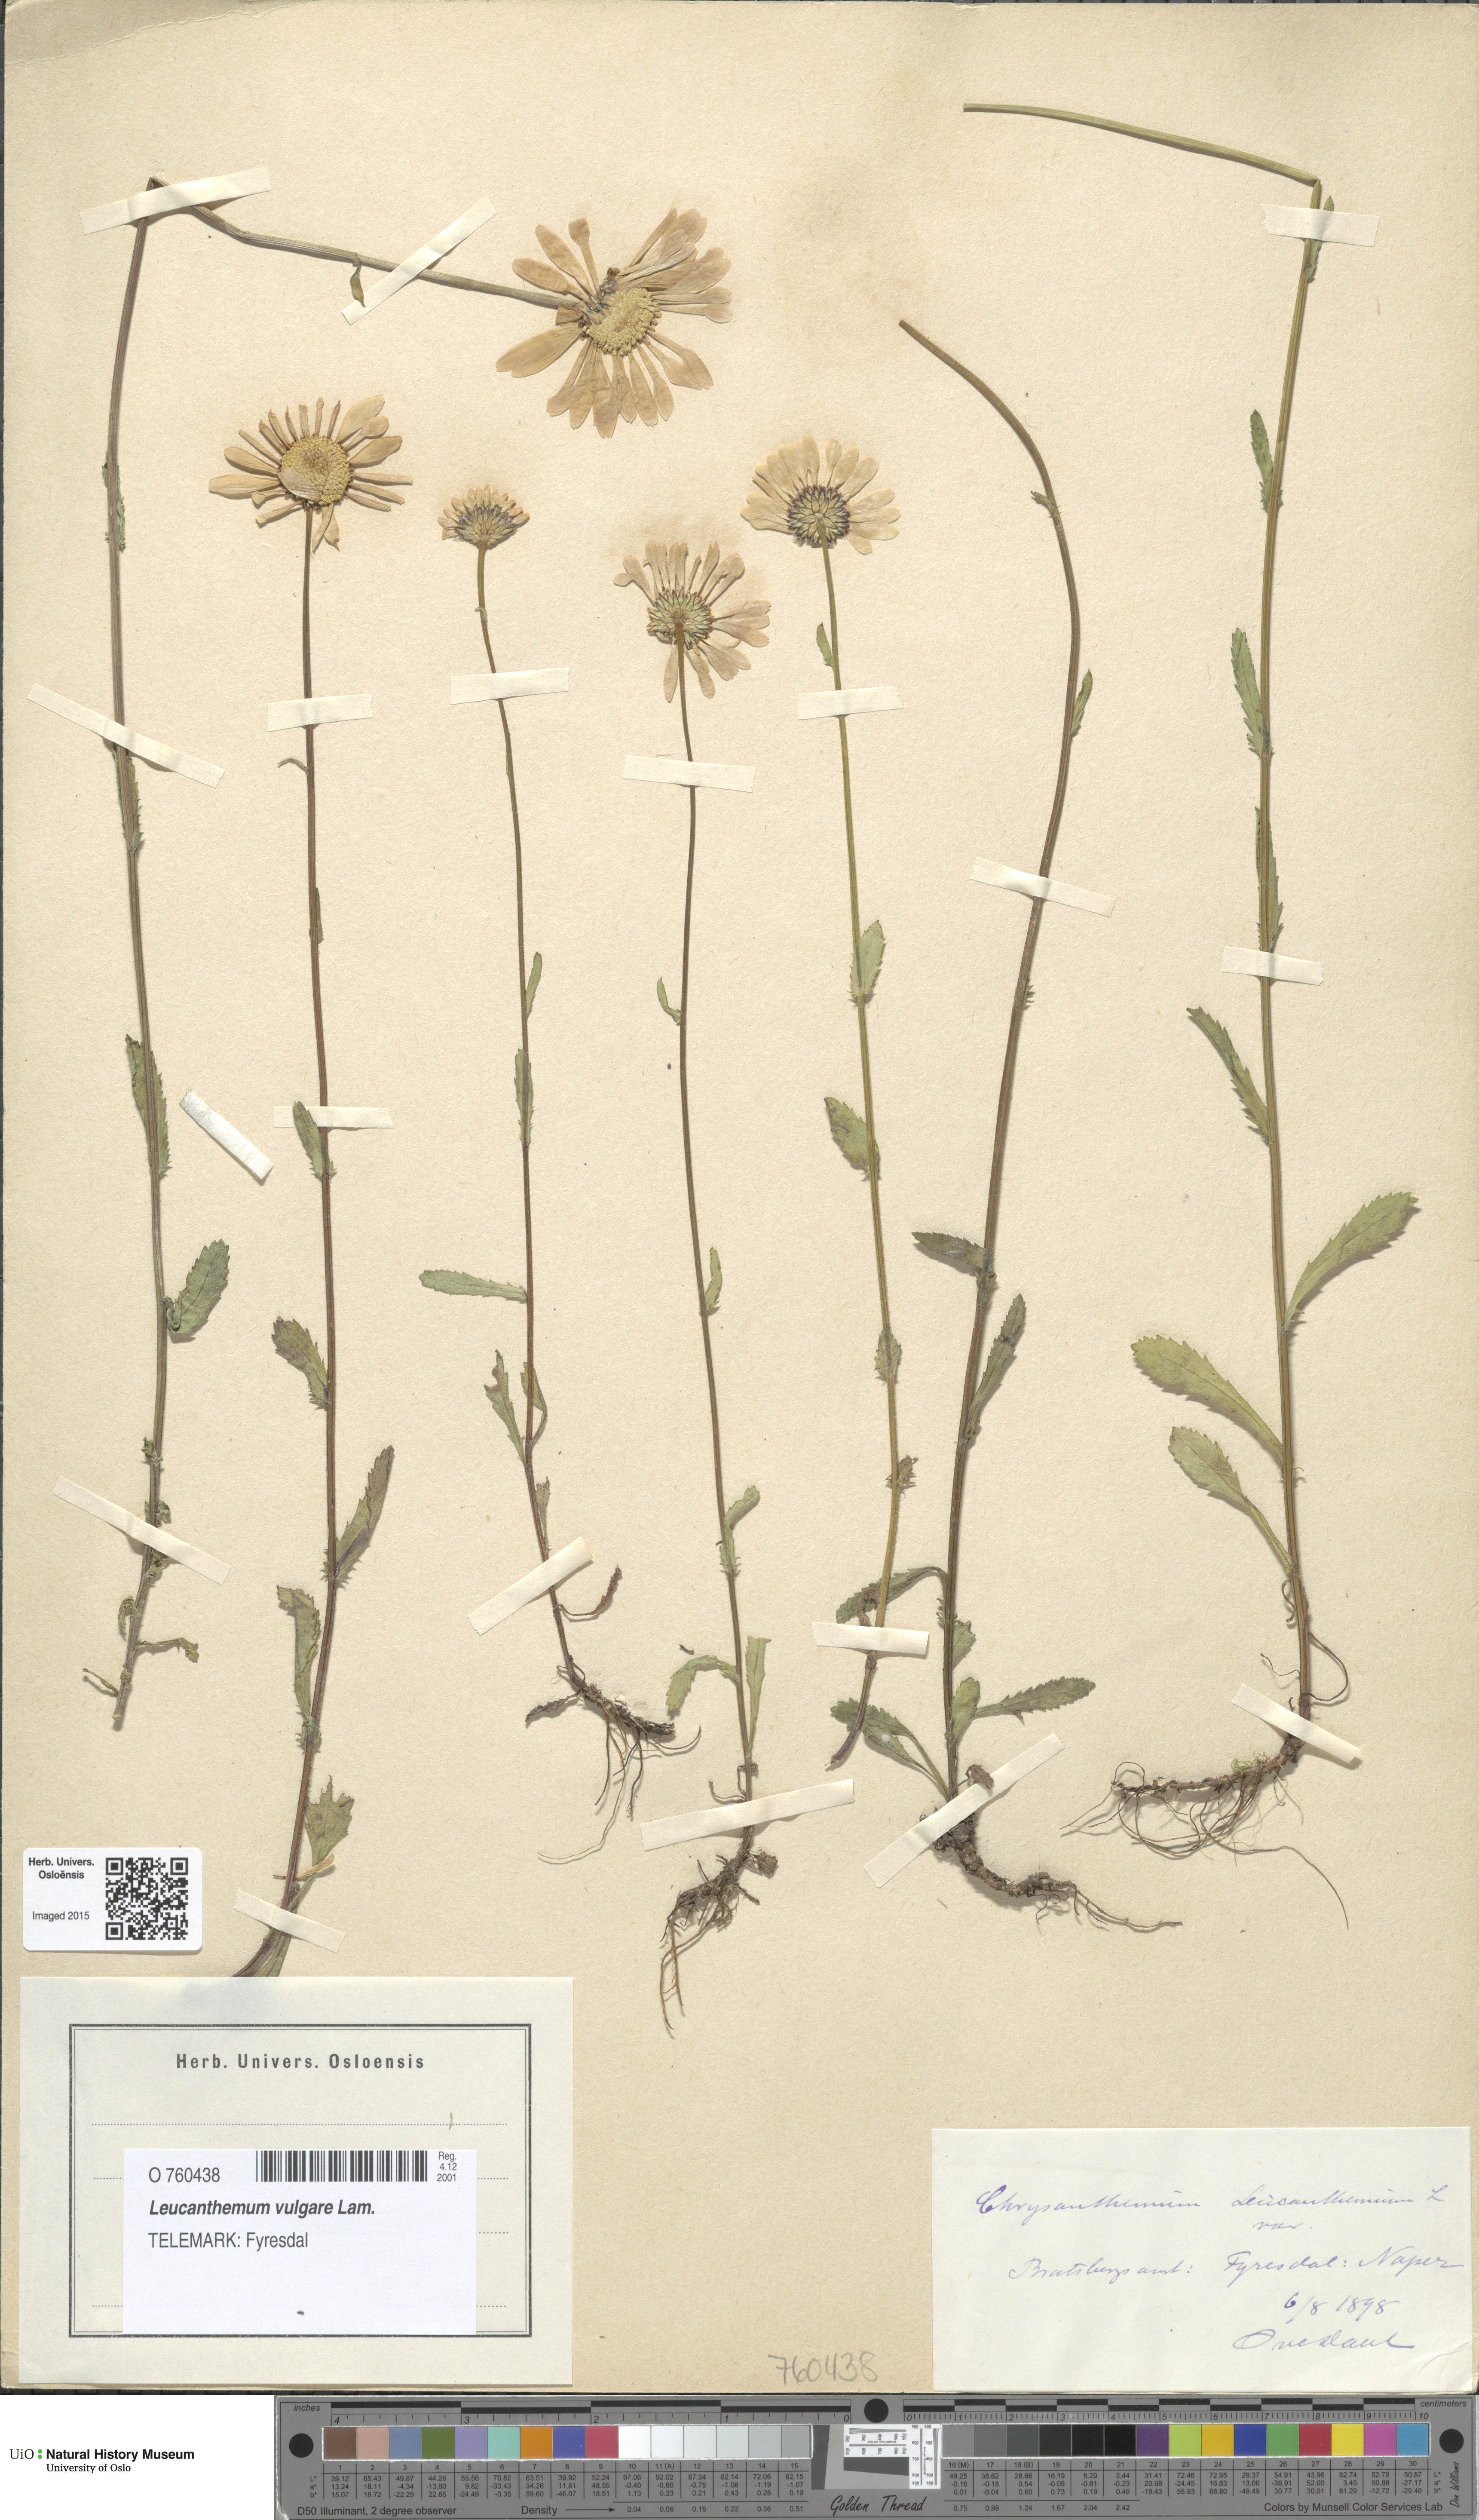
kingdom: Plantae
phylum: Tracheophyta
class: Magnoliopsida
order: Asterales
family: Asteraceae
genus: Leucanthemum
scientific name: Leucanthemum vulgare
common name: Oxeye daisy
